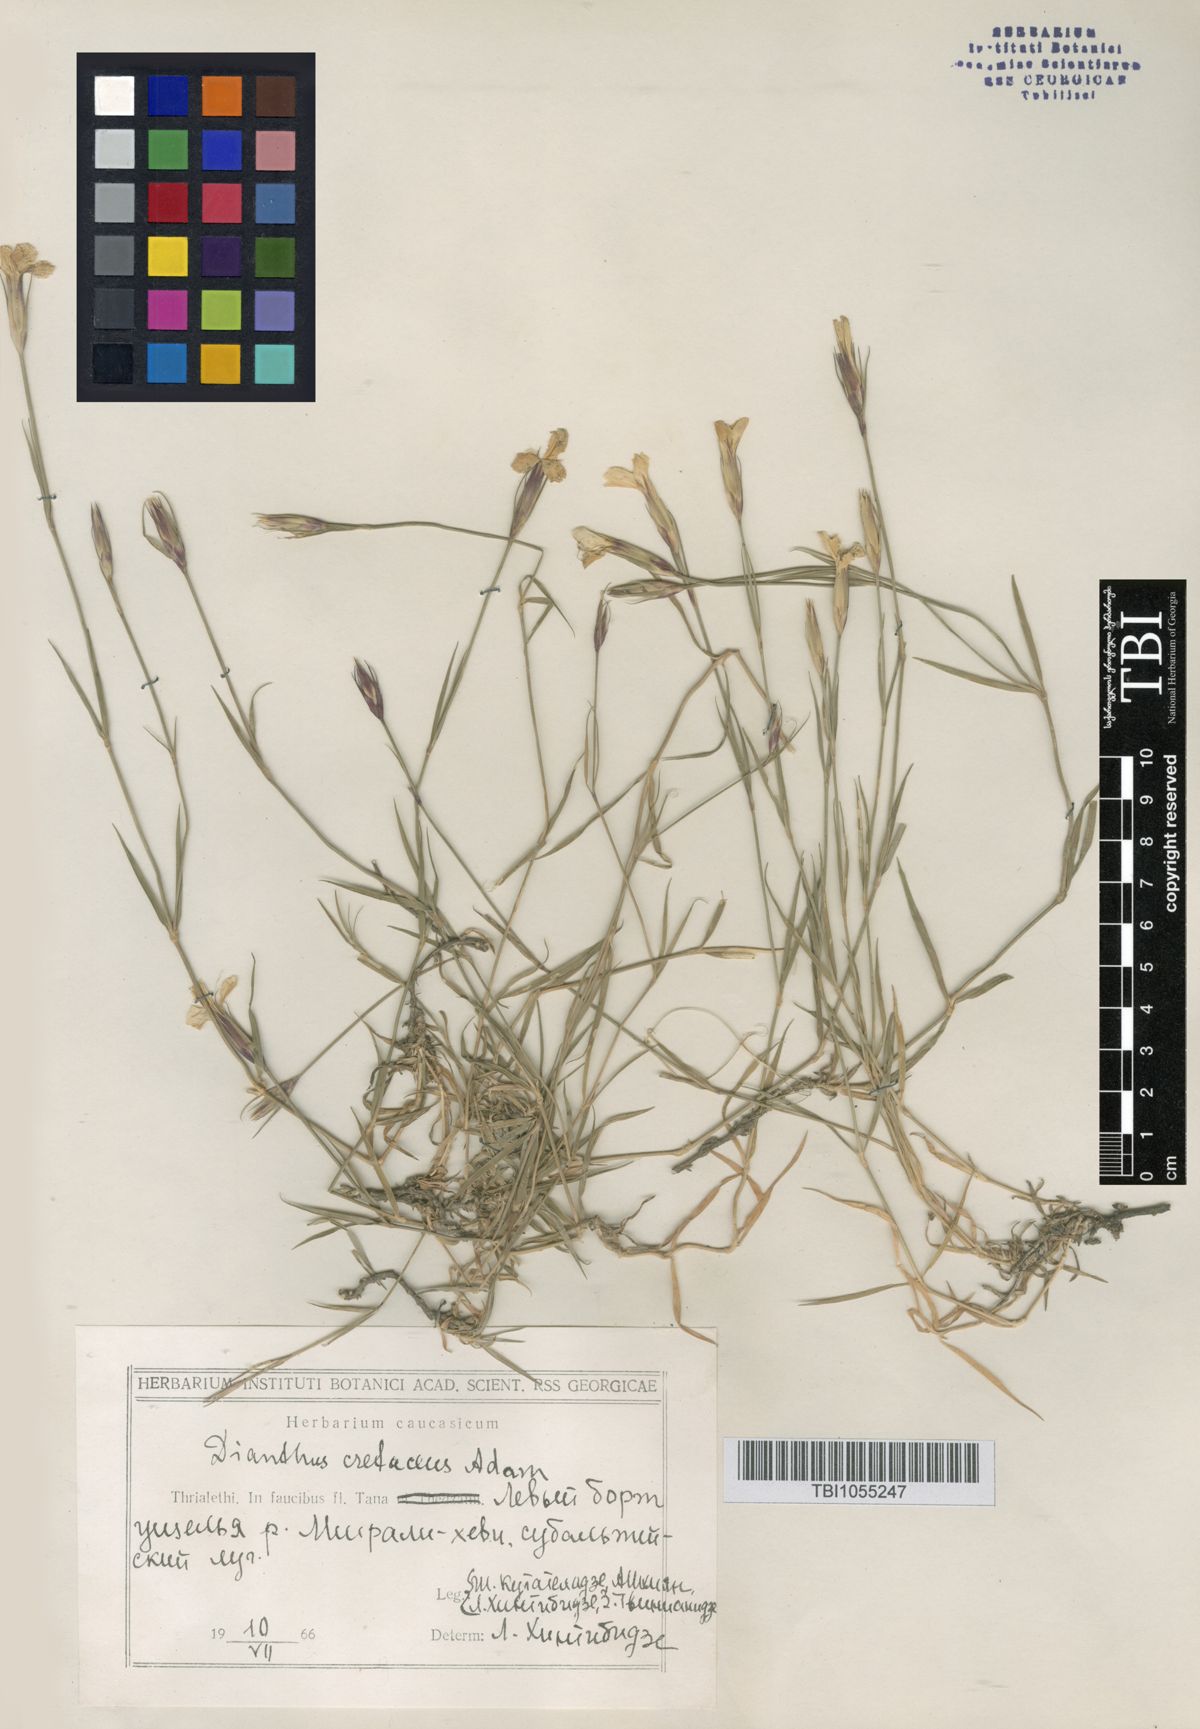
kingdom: Plantae
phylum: Tracheophyta
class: Magnoliopsida
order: Caryophyllales
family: Caryophyllaceae
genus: Dianthus
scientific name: Dianthus cretaceus
